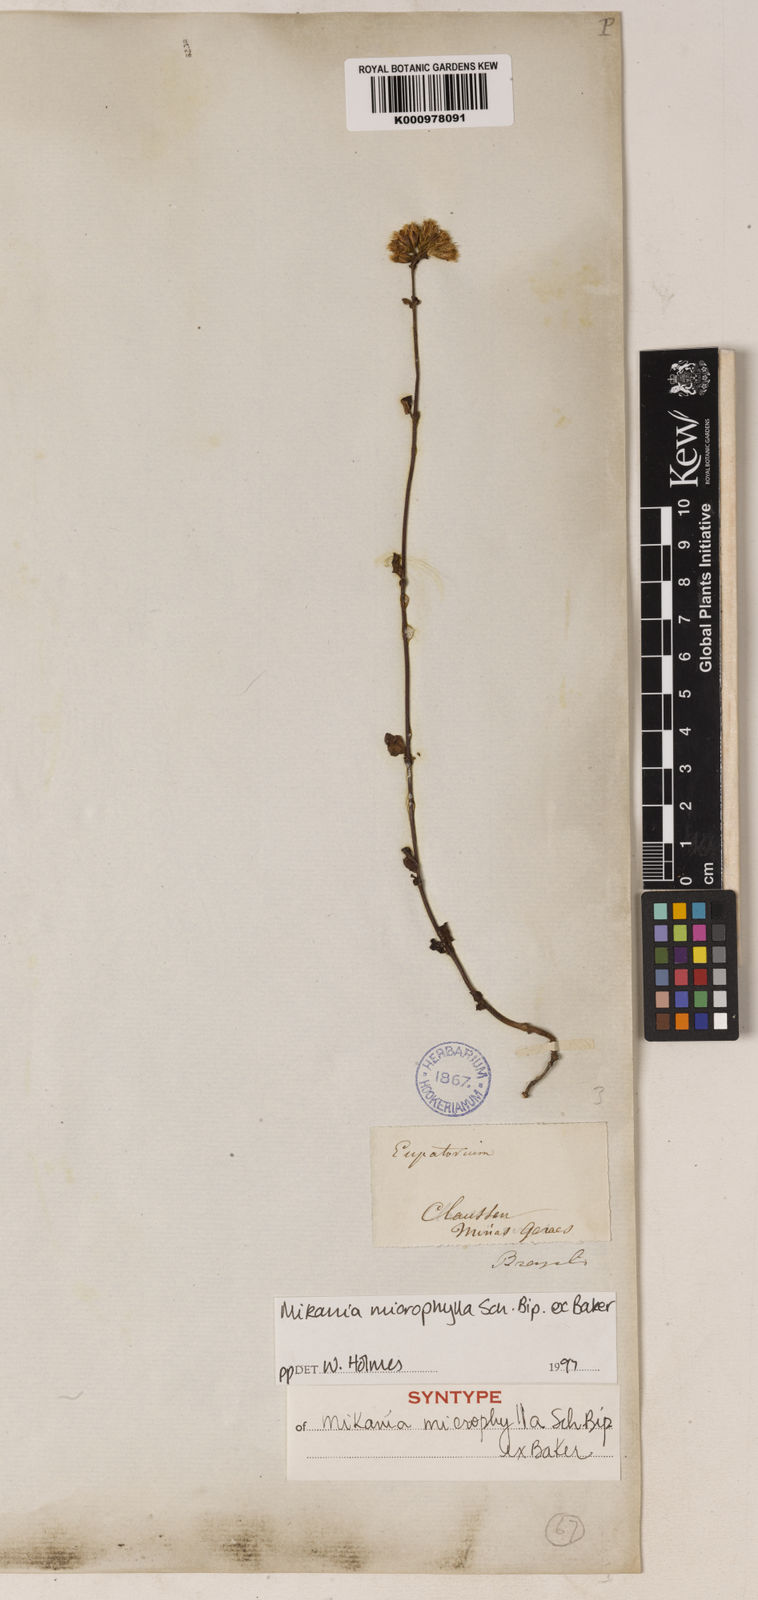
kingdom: Plantae
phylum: Tracheophyta
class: Magnoliopsida
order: Asterales
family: Asteraceae
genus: Mikania
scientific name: Mikania
